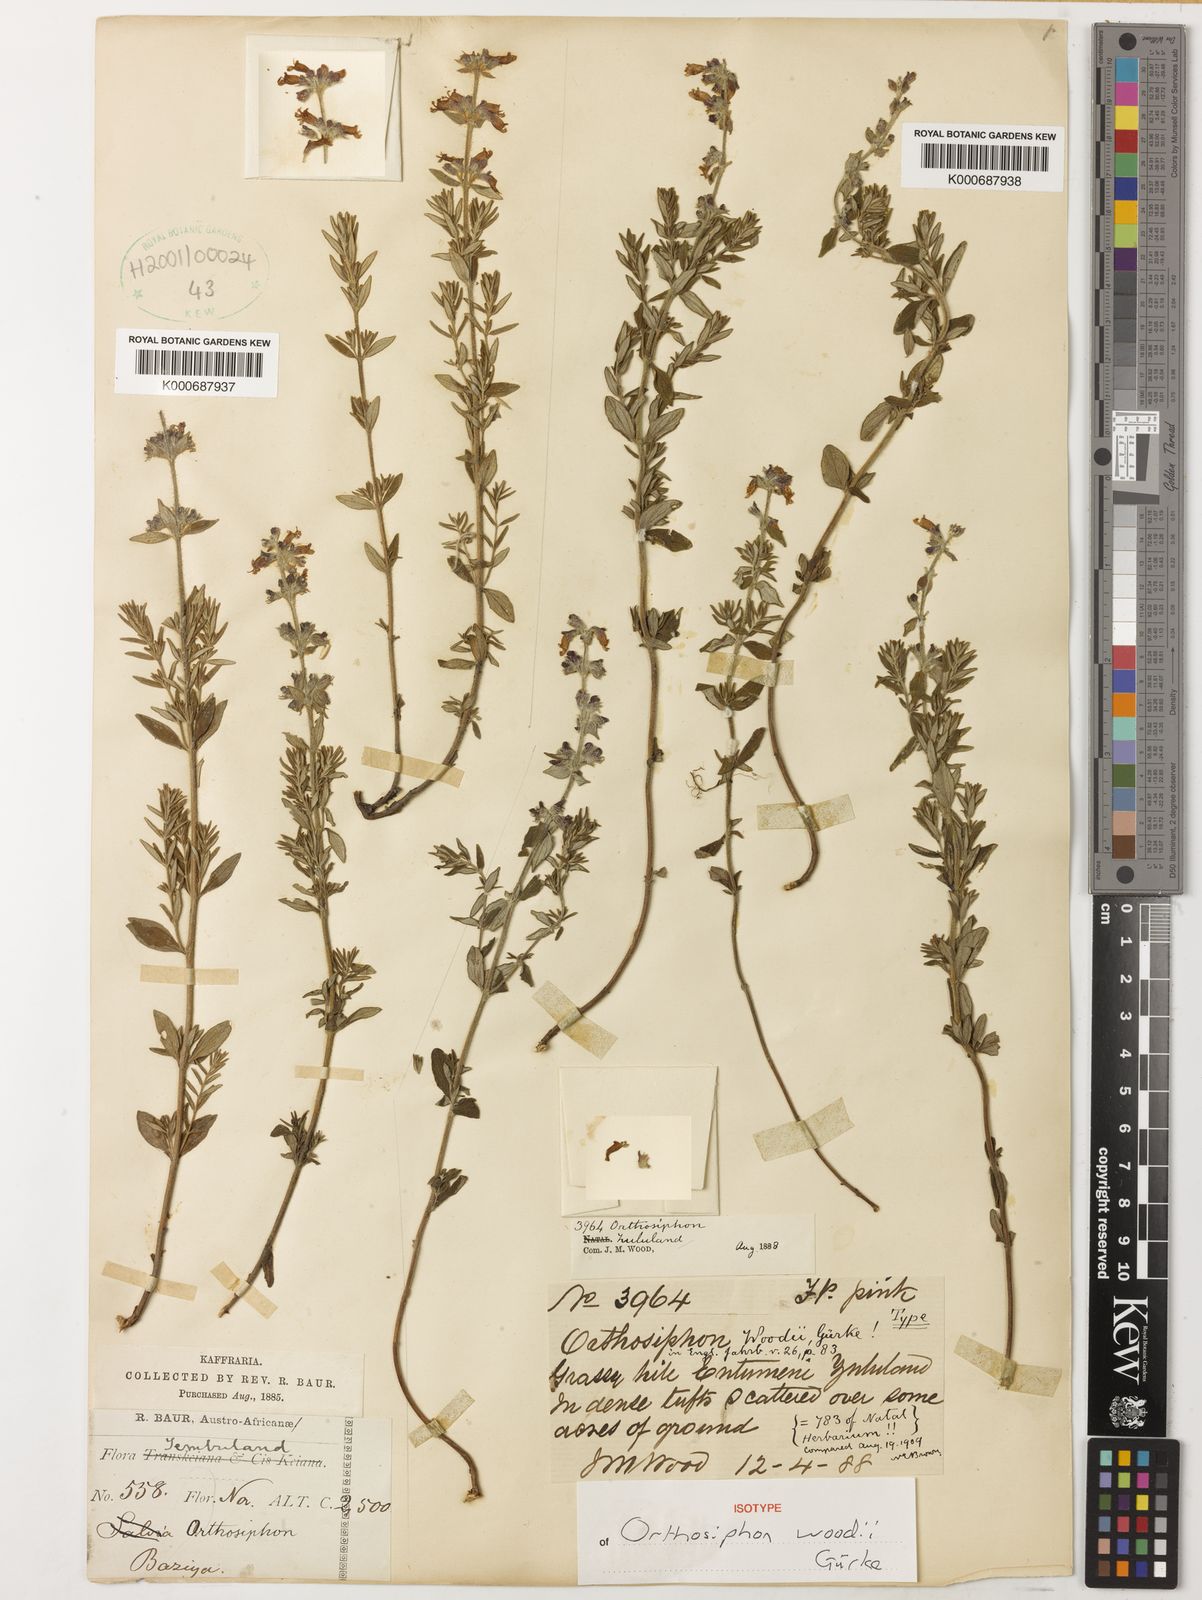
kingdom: Plantae
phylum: Tracheophyta
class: Magnoliopsida
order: Lamiales
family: Lamiaceae
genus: Syncolostemon
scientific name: Syncolostemon teucriifolius
